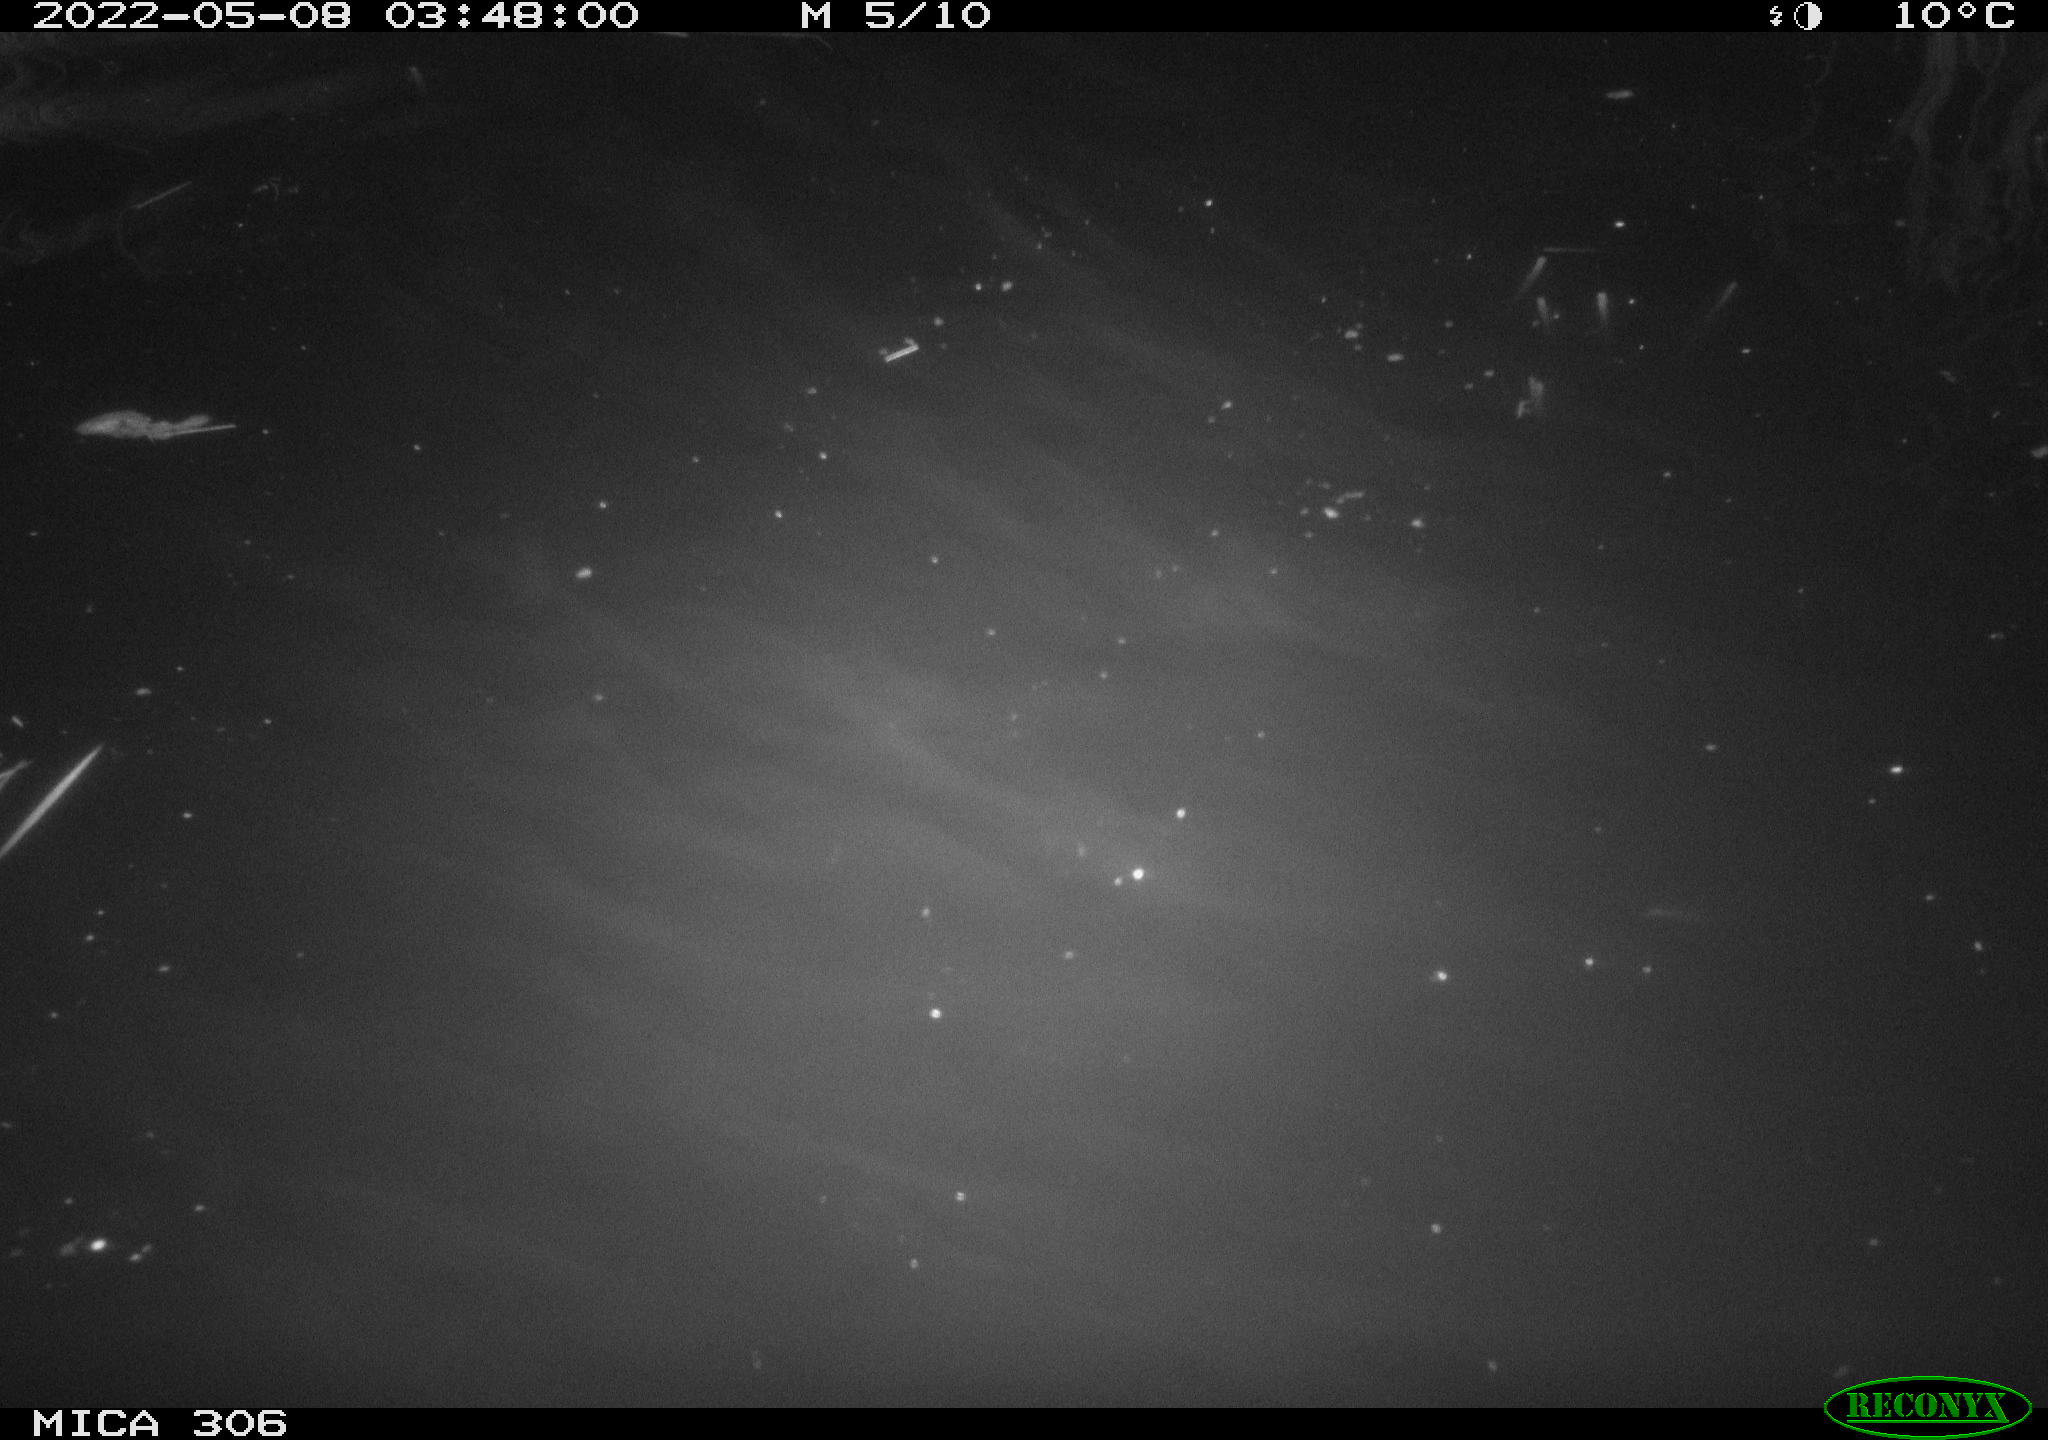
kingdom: Animalia
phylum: Chordata
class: Mammalia
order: Rodentia
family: Cricetidae
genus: Ondatra
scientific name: Ondatra zibethicus
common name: Muskrat
